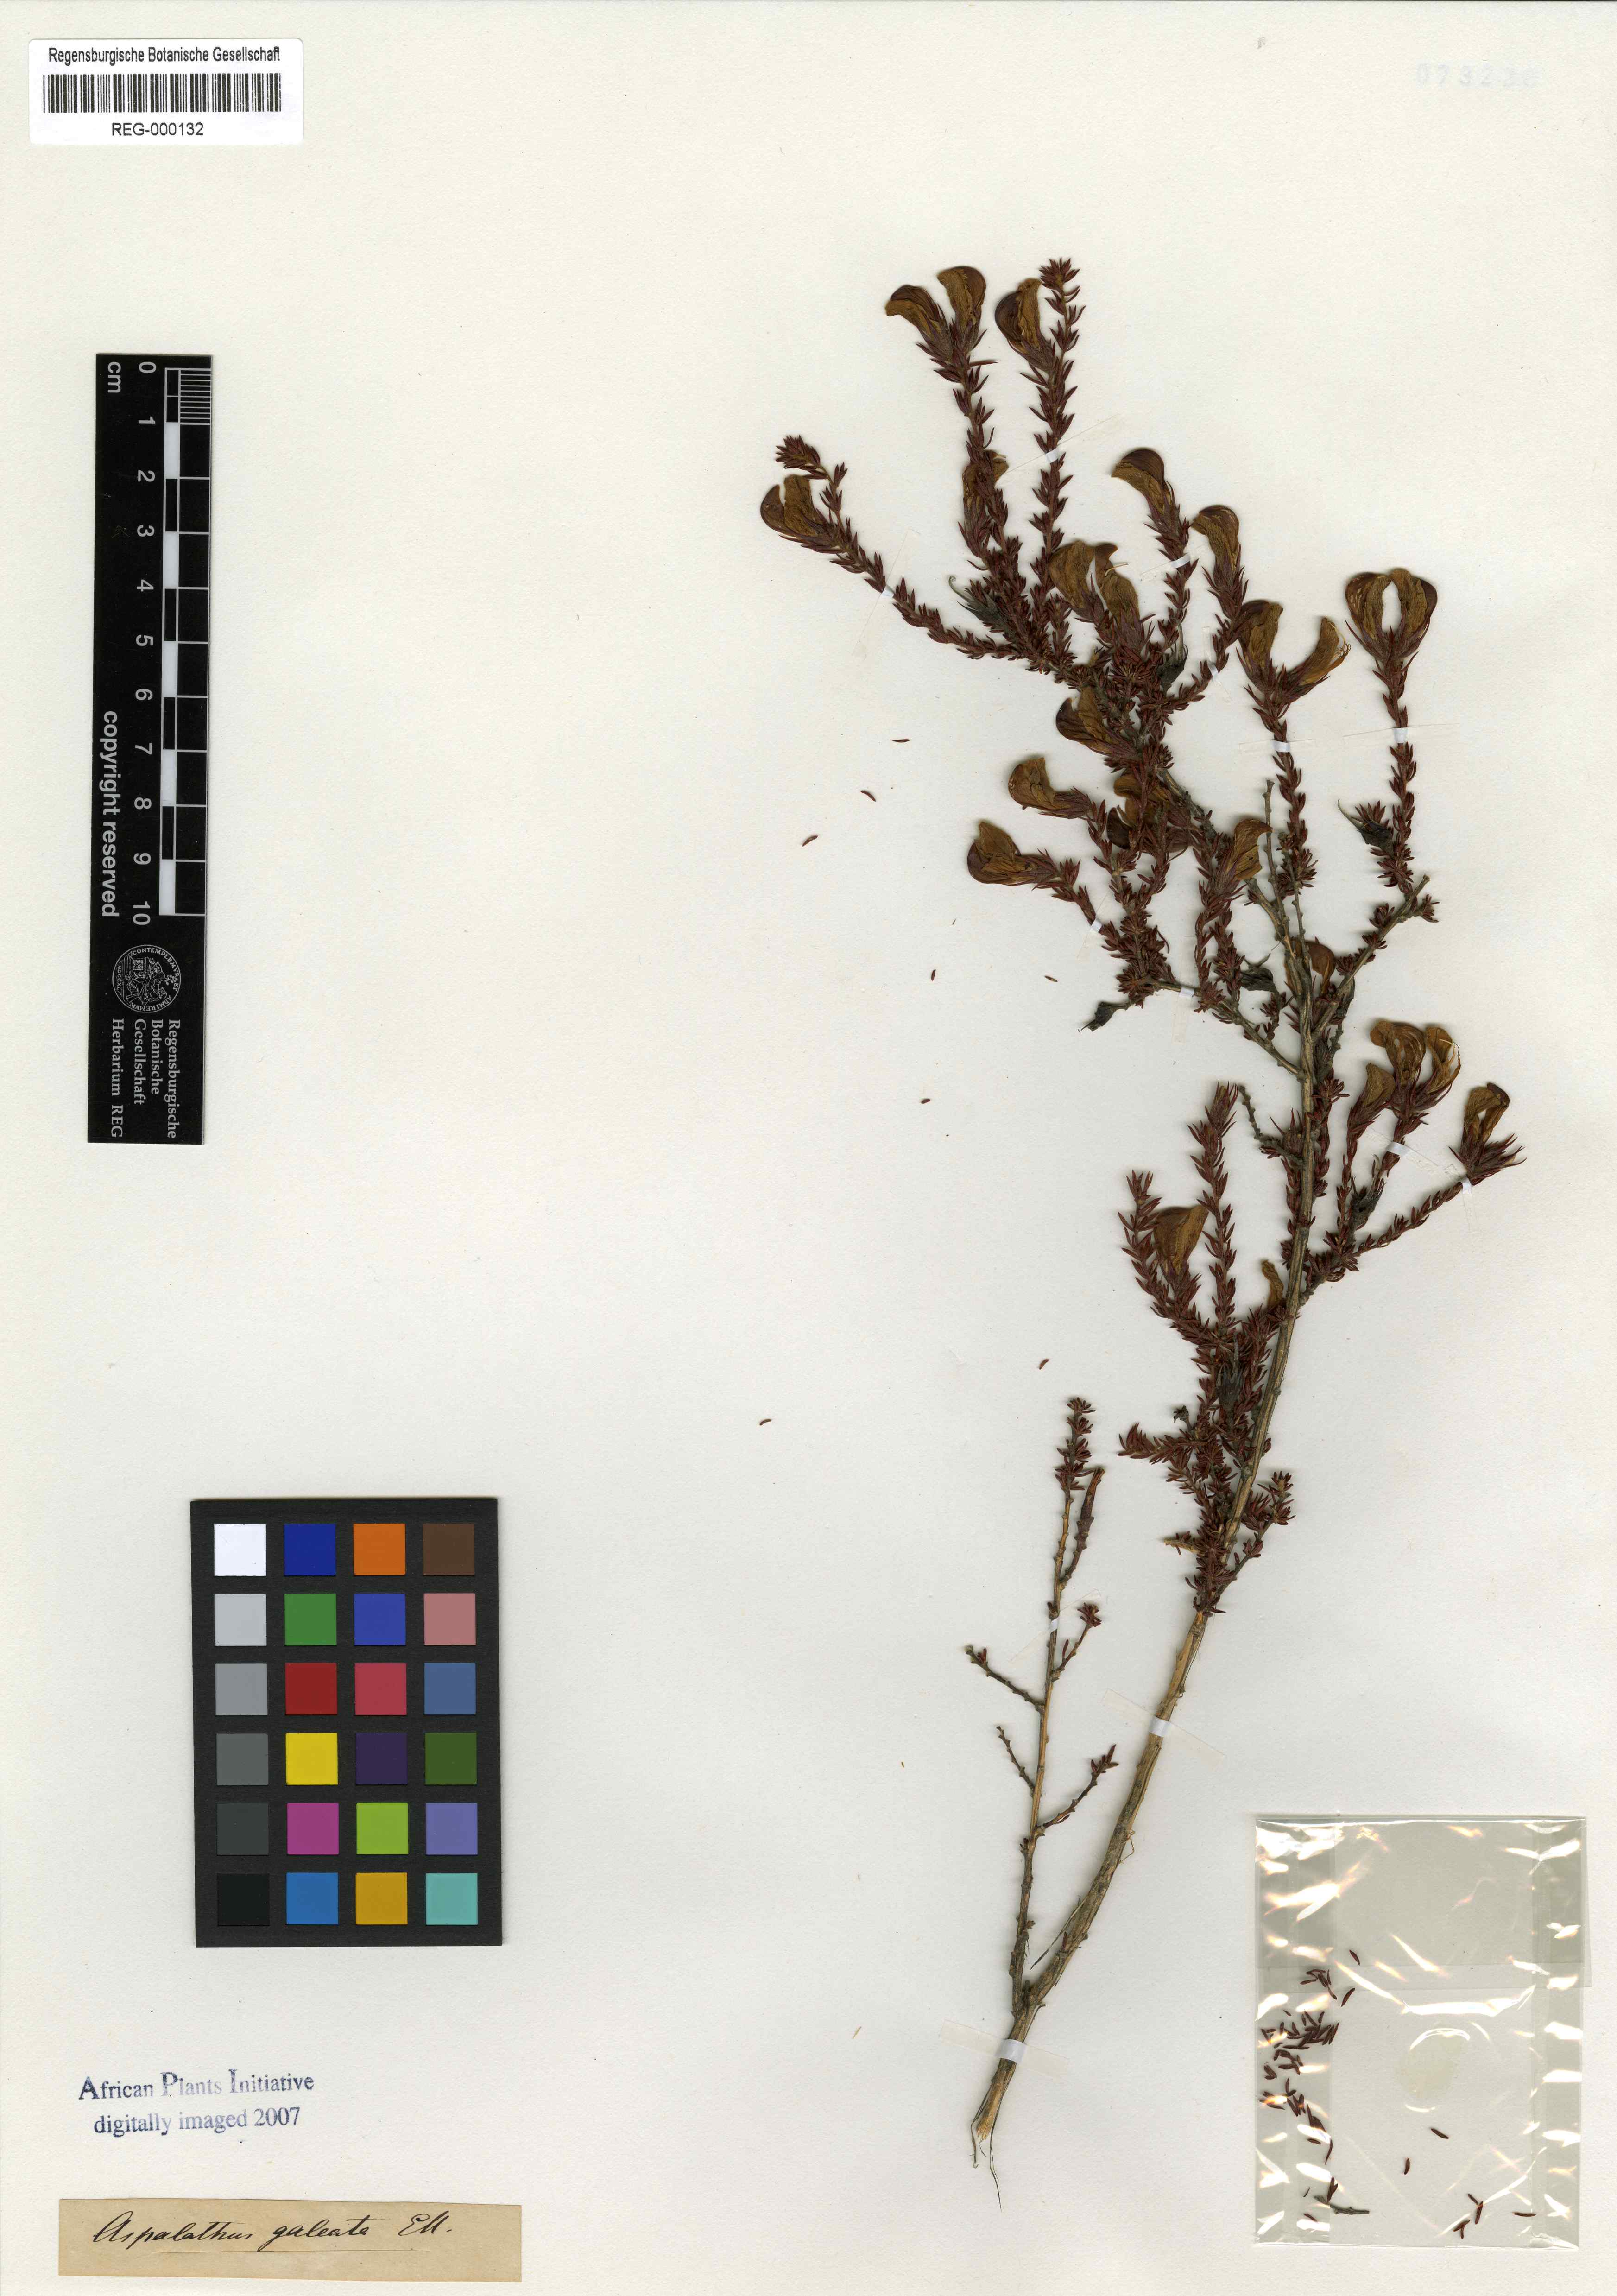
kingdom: Plantae
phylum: Tracheophyta
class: Magnoliopsida
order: Fabales
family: Fabaceae
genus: Aspalathus
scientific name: Aspalathus galeata
